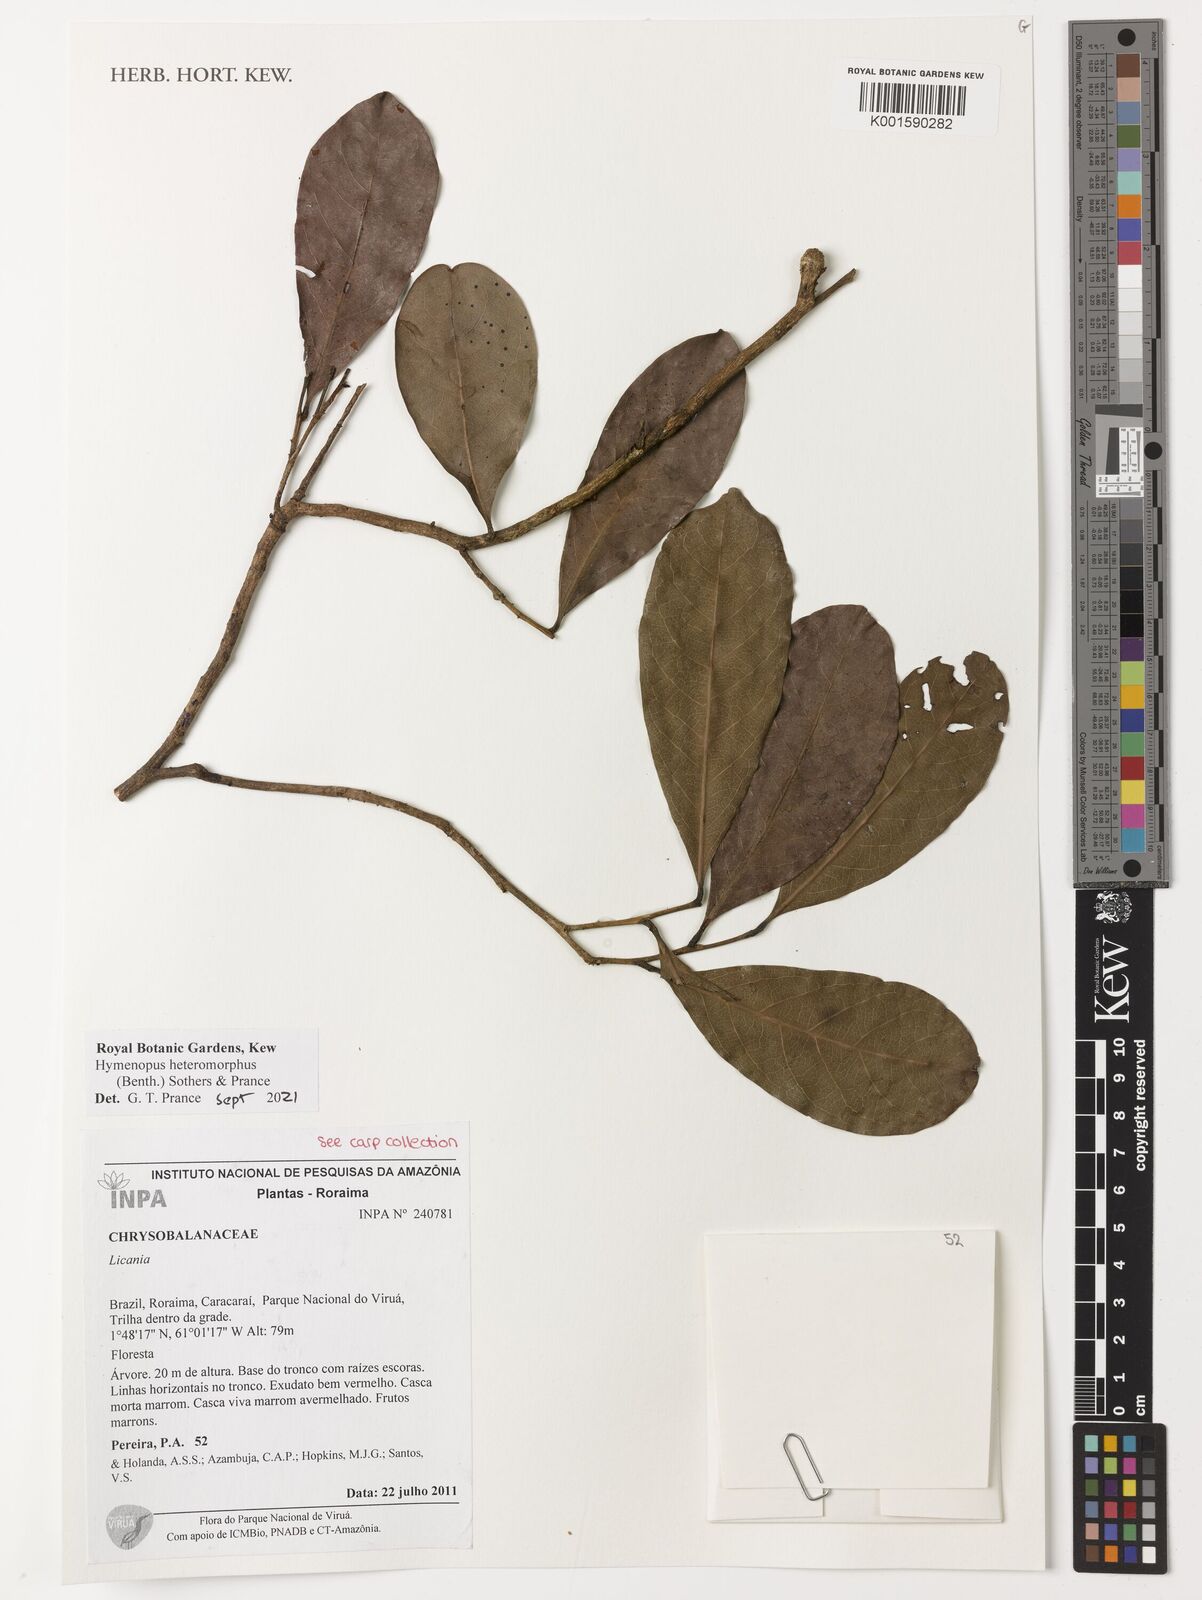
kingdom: Plantae
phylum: Tracheophyta
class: Magnoliopsida
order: Malpighiales
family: Chrysobalanaceae
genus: Hymenopus
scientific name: Hymenopus heteromorphus
